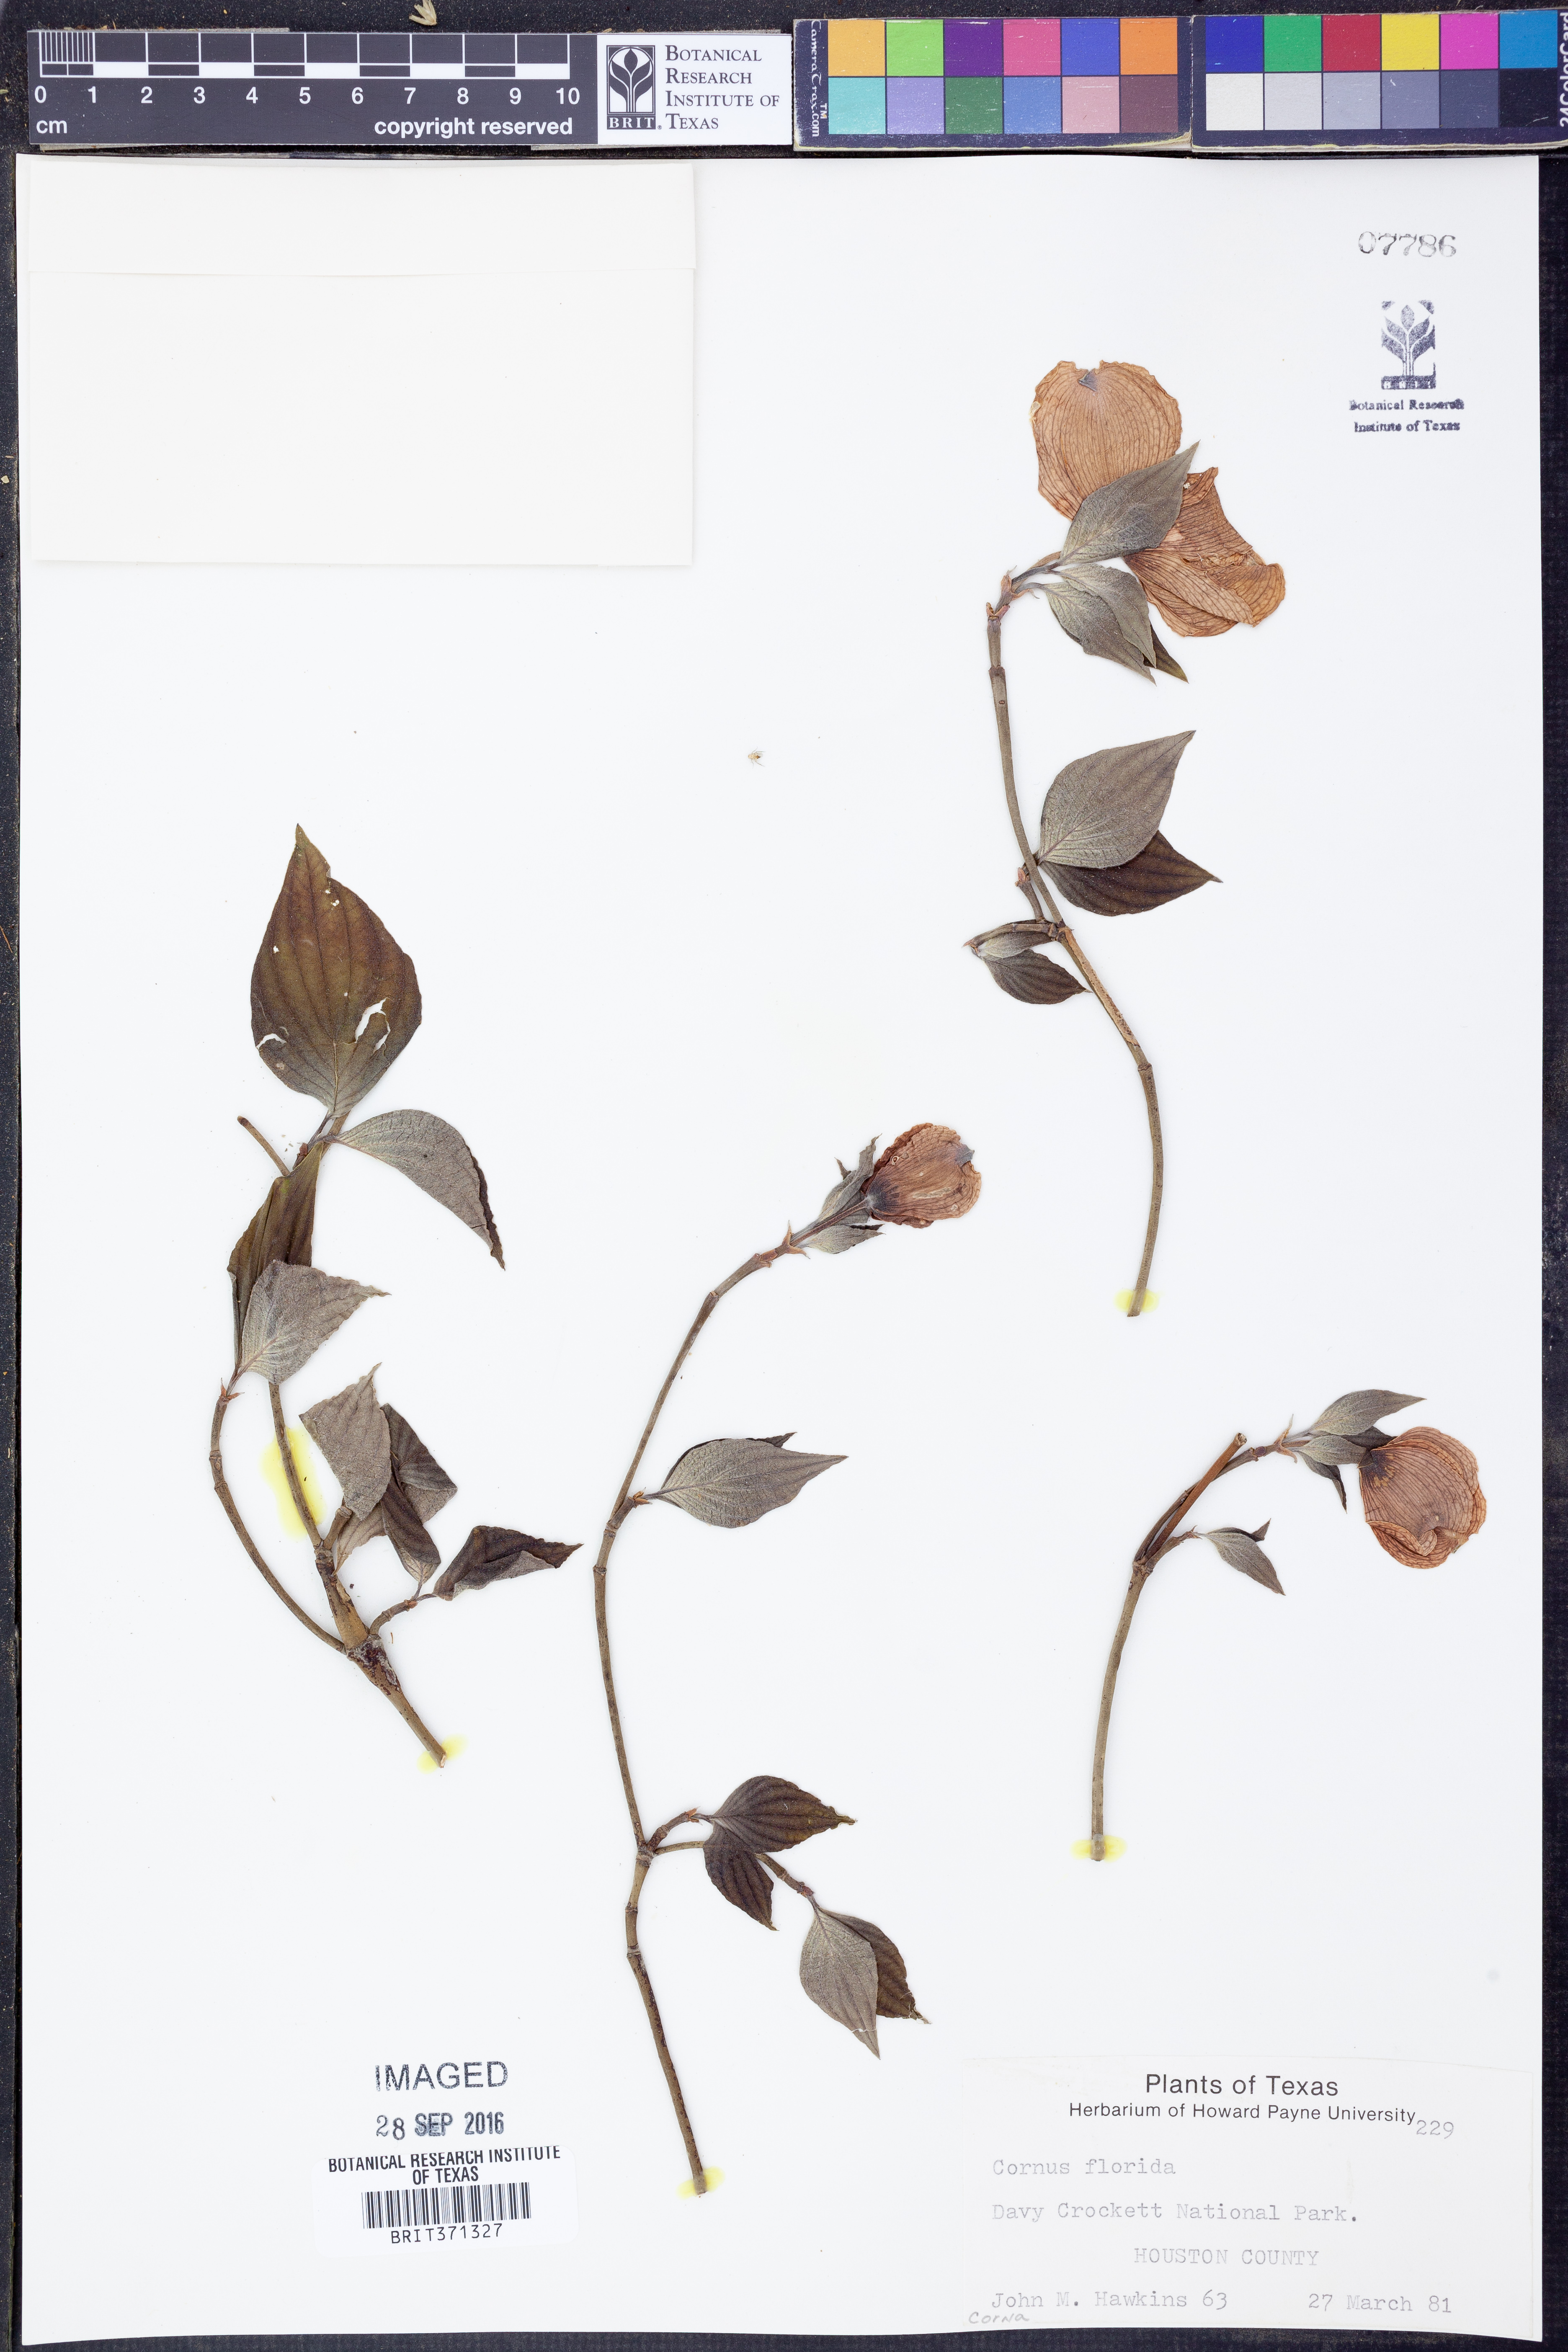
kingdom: Plantae
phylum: Tracheophyta
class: Magnoliopsida
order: Cornales
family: Cornaceae
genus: Cornus
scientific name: Cornus florida
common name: Flowering dogwood
